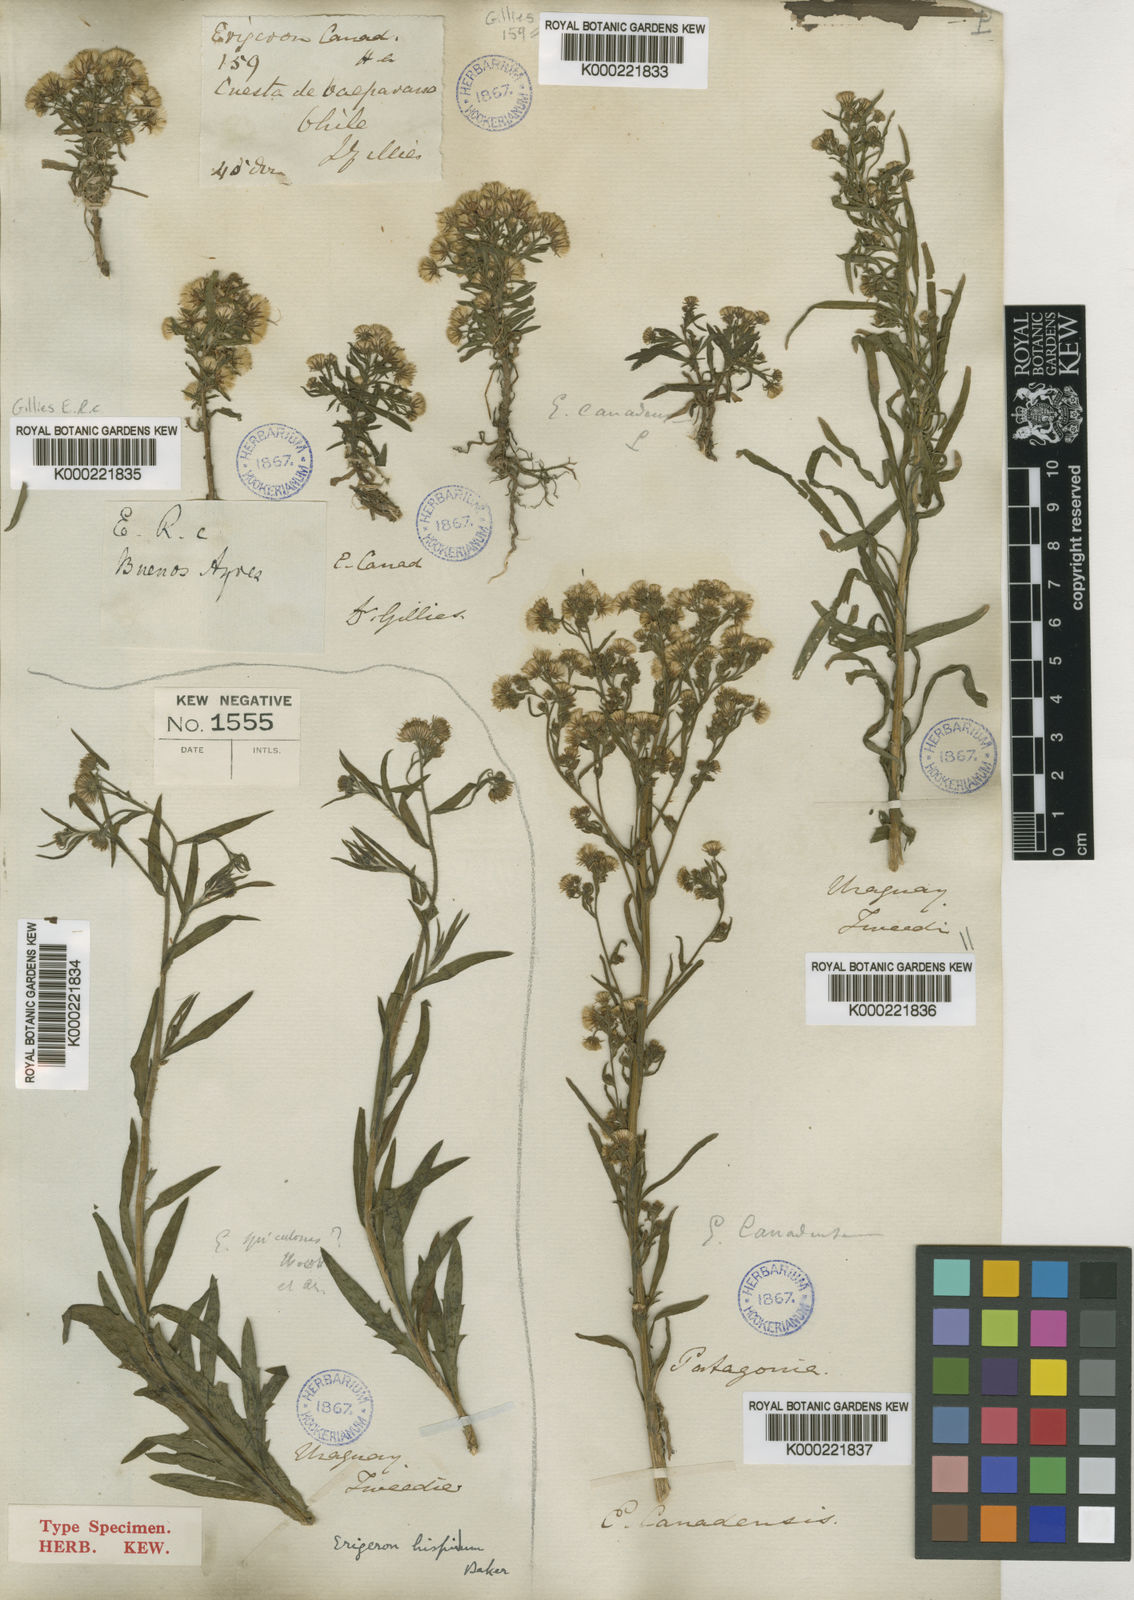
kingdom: Plantae
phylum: Tracheophyta
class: Magnoliopsida
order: Asterales
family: Asteraceae
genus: Erigeron
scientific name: Erigeron
